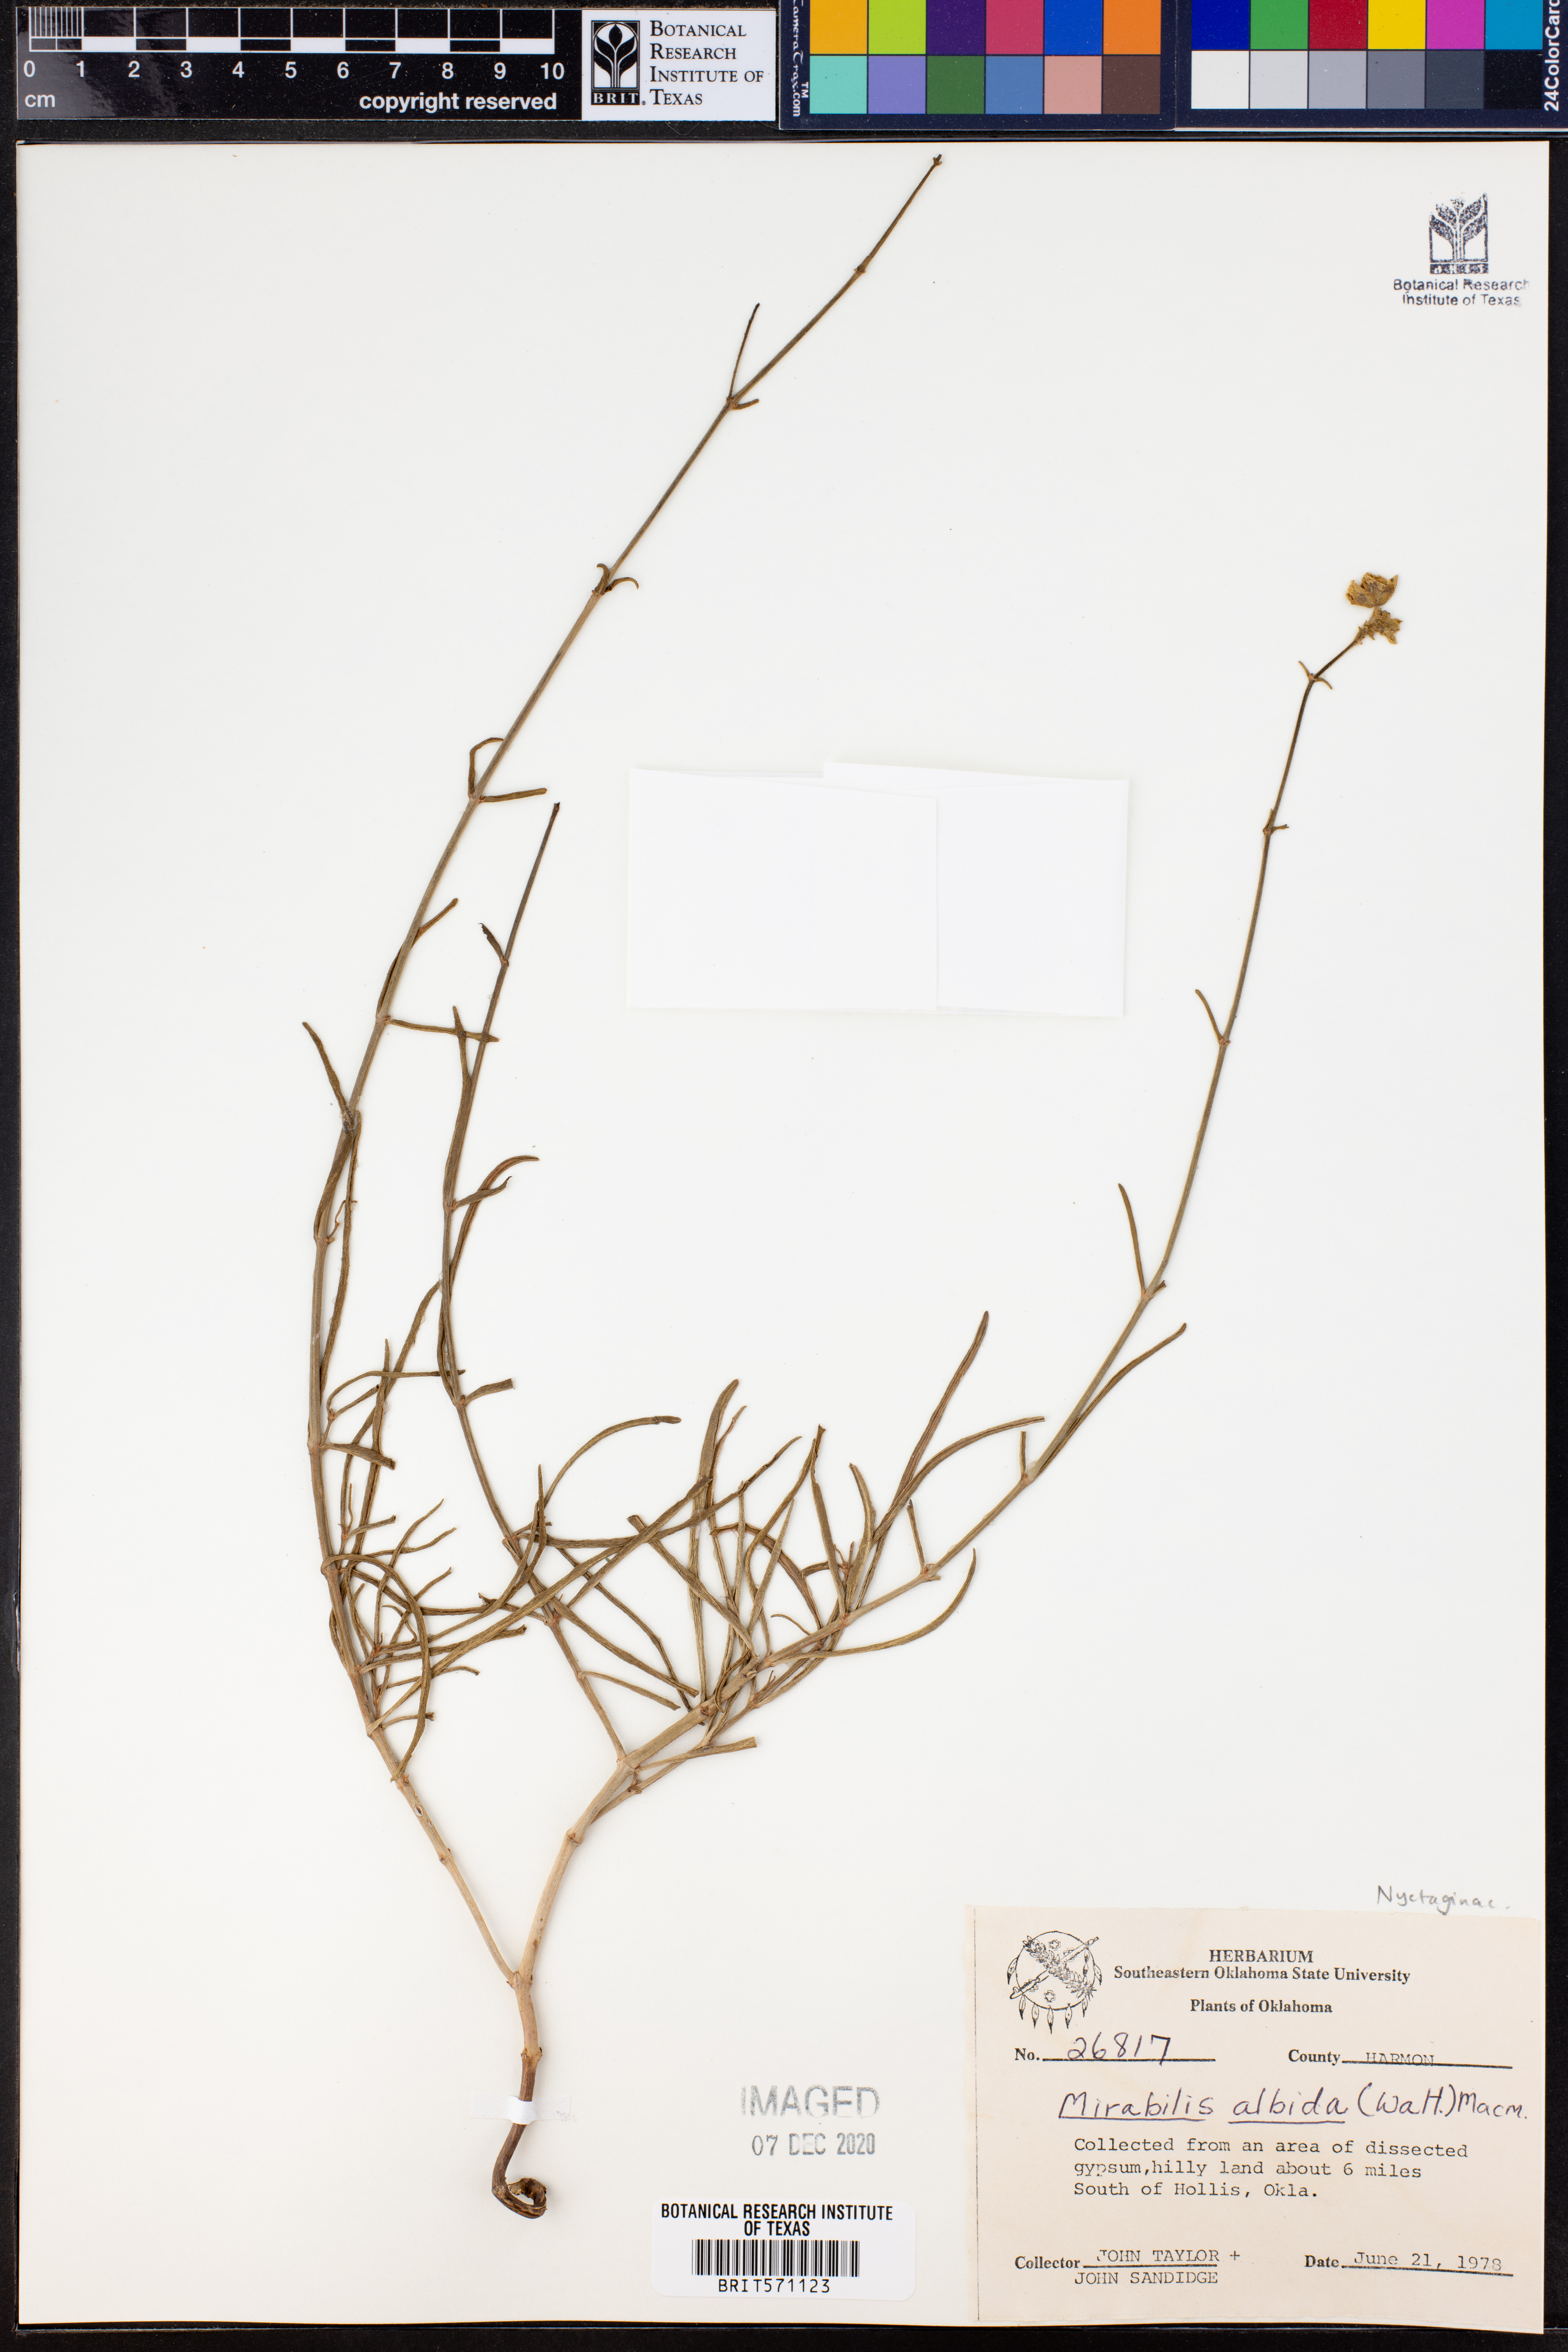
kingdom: Plantae
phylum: Tracheophyta
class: Magnoliopsida
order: Caryophyllales
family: Nyctaginaceae
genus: Mirabilis
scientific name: Mirabilis albida
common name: Hairy four-o'clock
